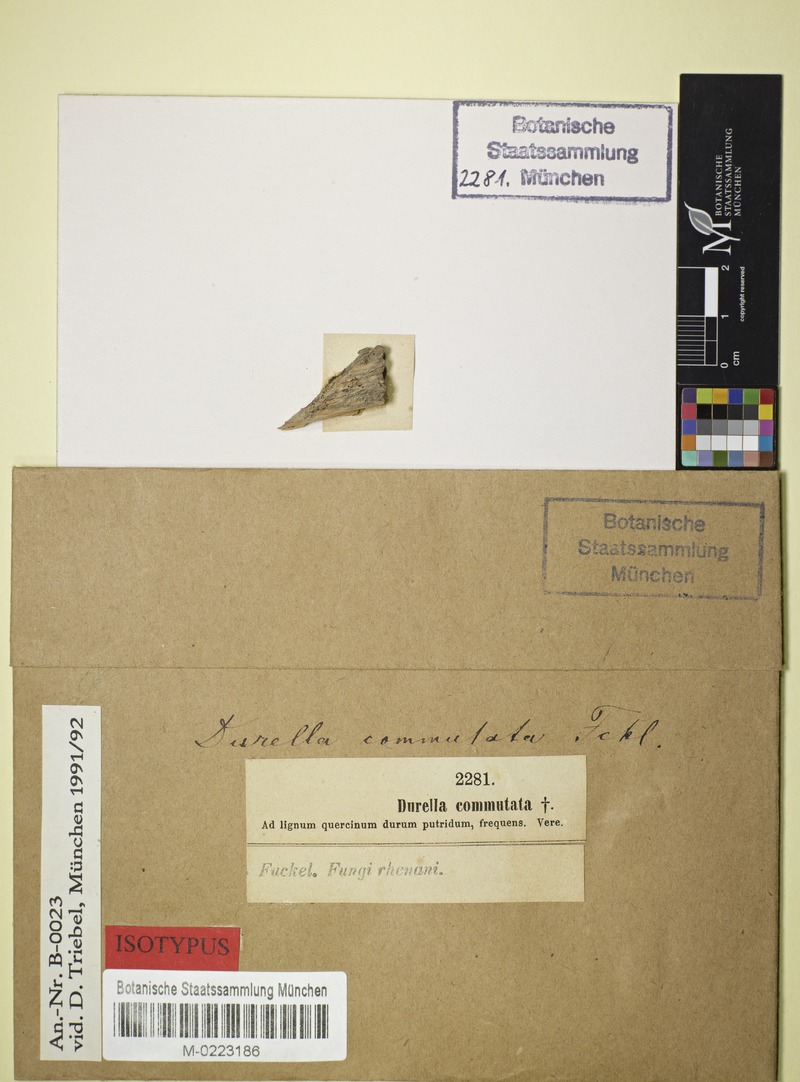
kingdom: Fungi
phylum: Ascomycota
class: Leotiomycetes
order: Helotiales
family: Helotiaceae
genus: Durella
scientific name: Durella commutata
